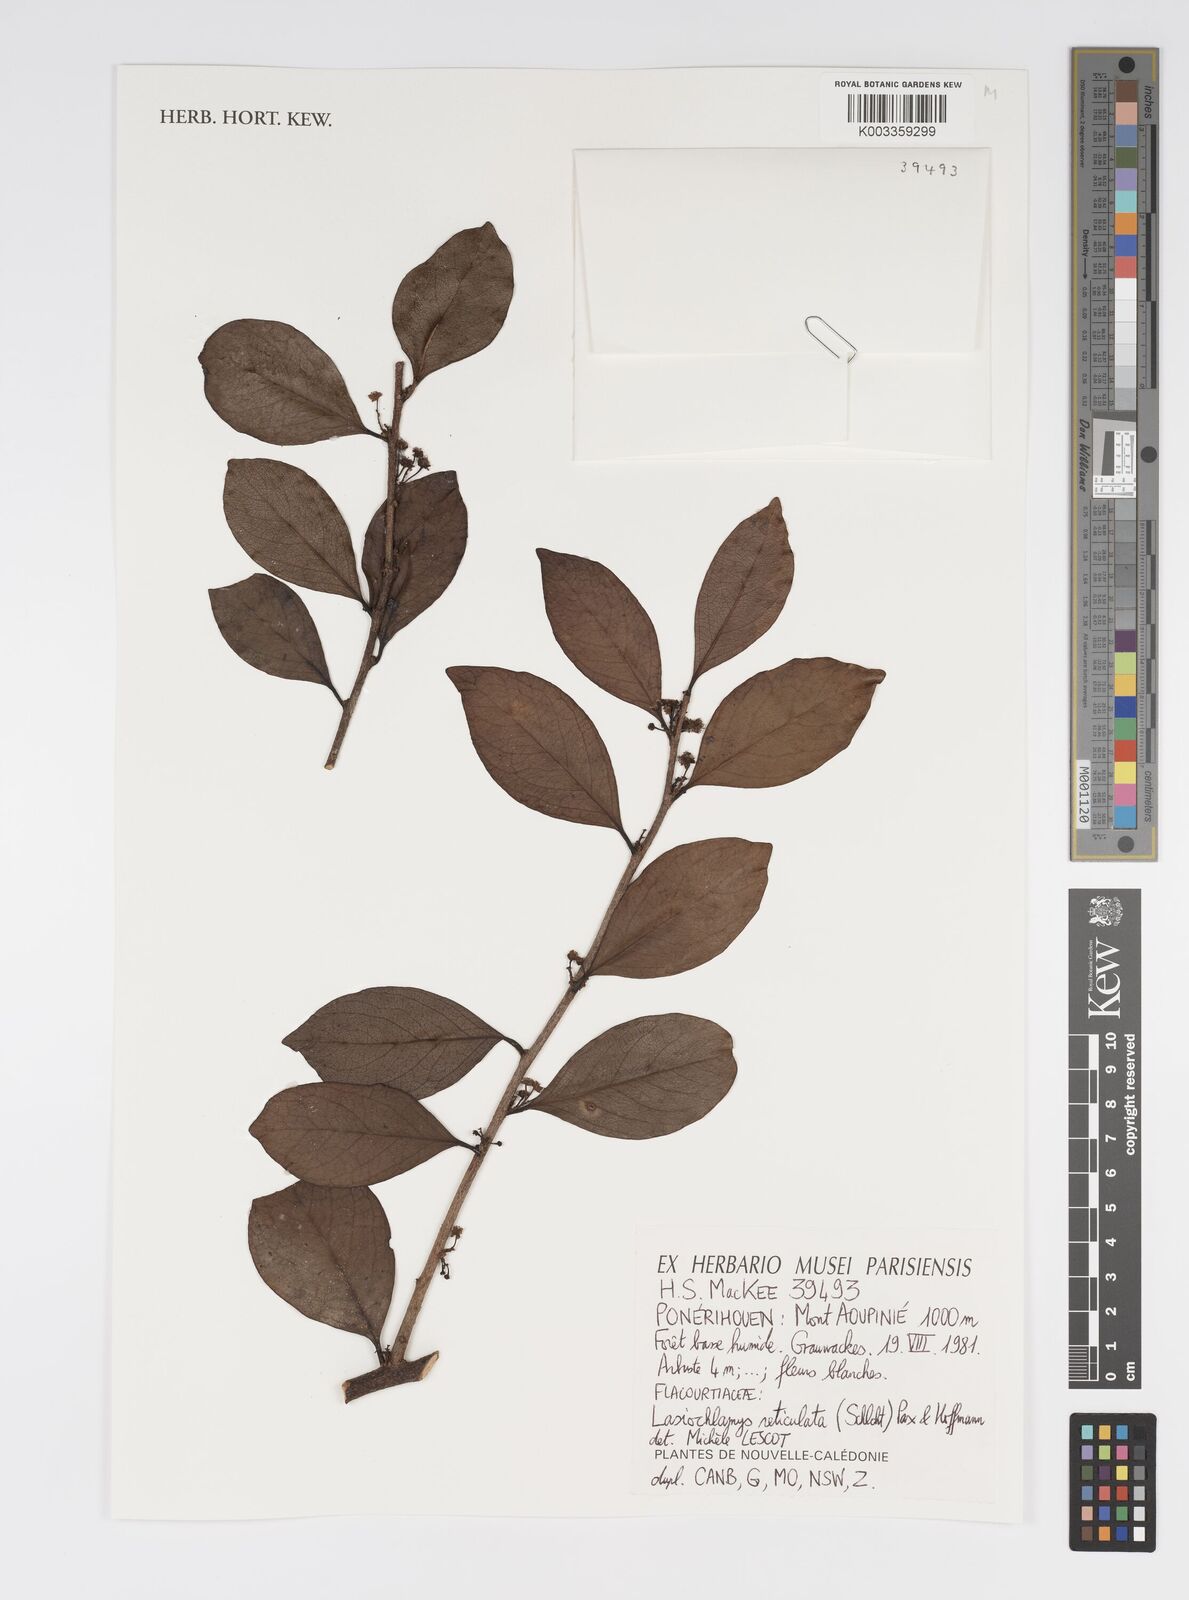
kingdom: Plantae
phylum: Tracheophyta
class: Magnoliopsida
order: Malpighiales
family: Salicaceae
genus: Lasiochlamys
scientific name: Lasiochlamys reticulata
